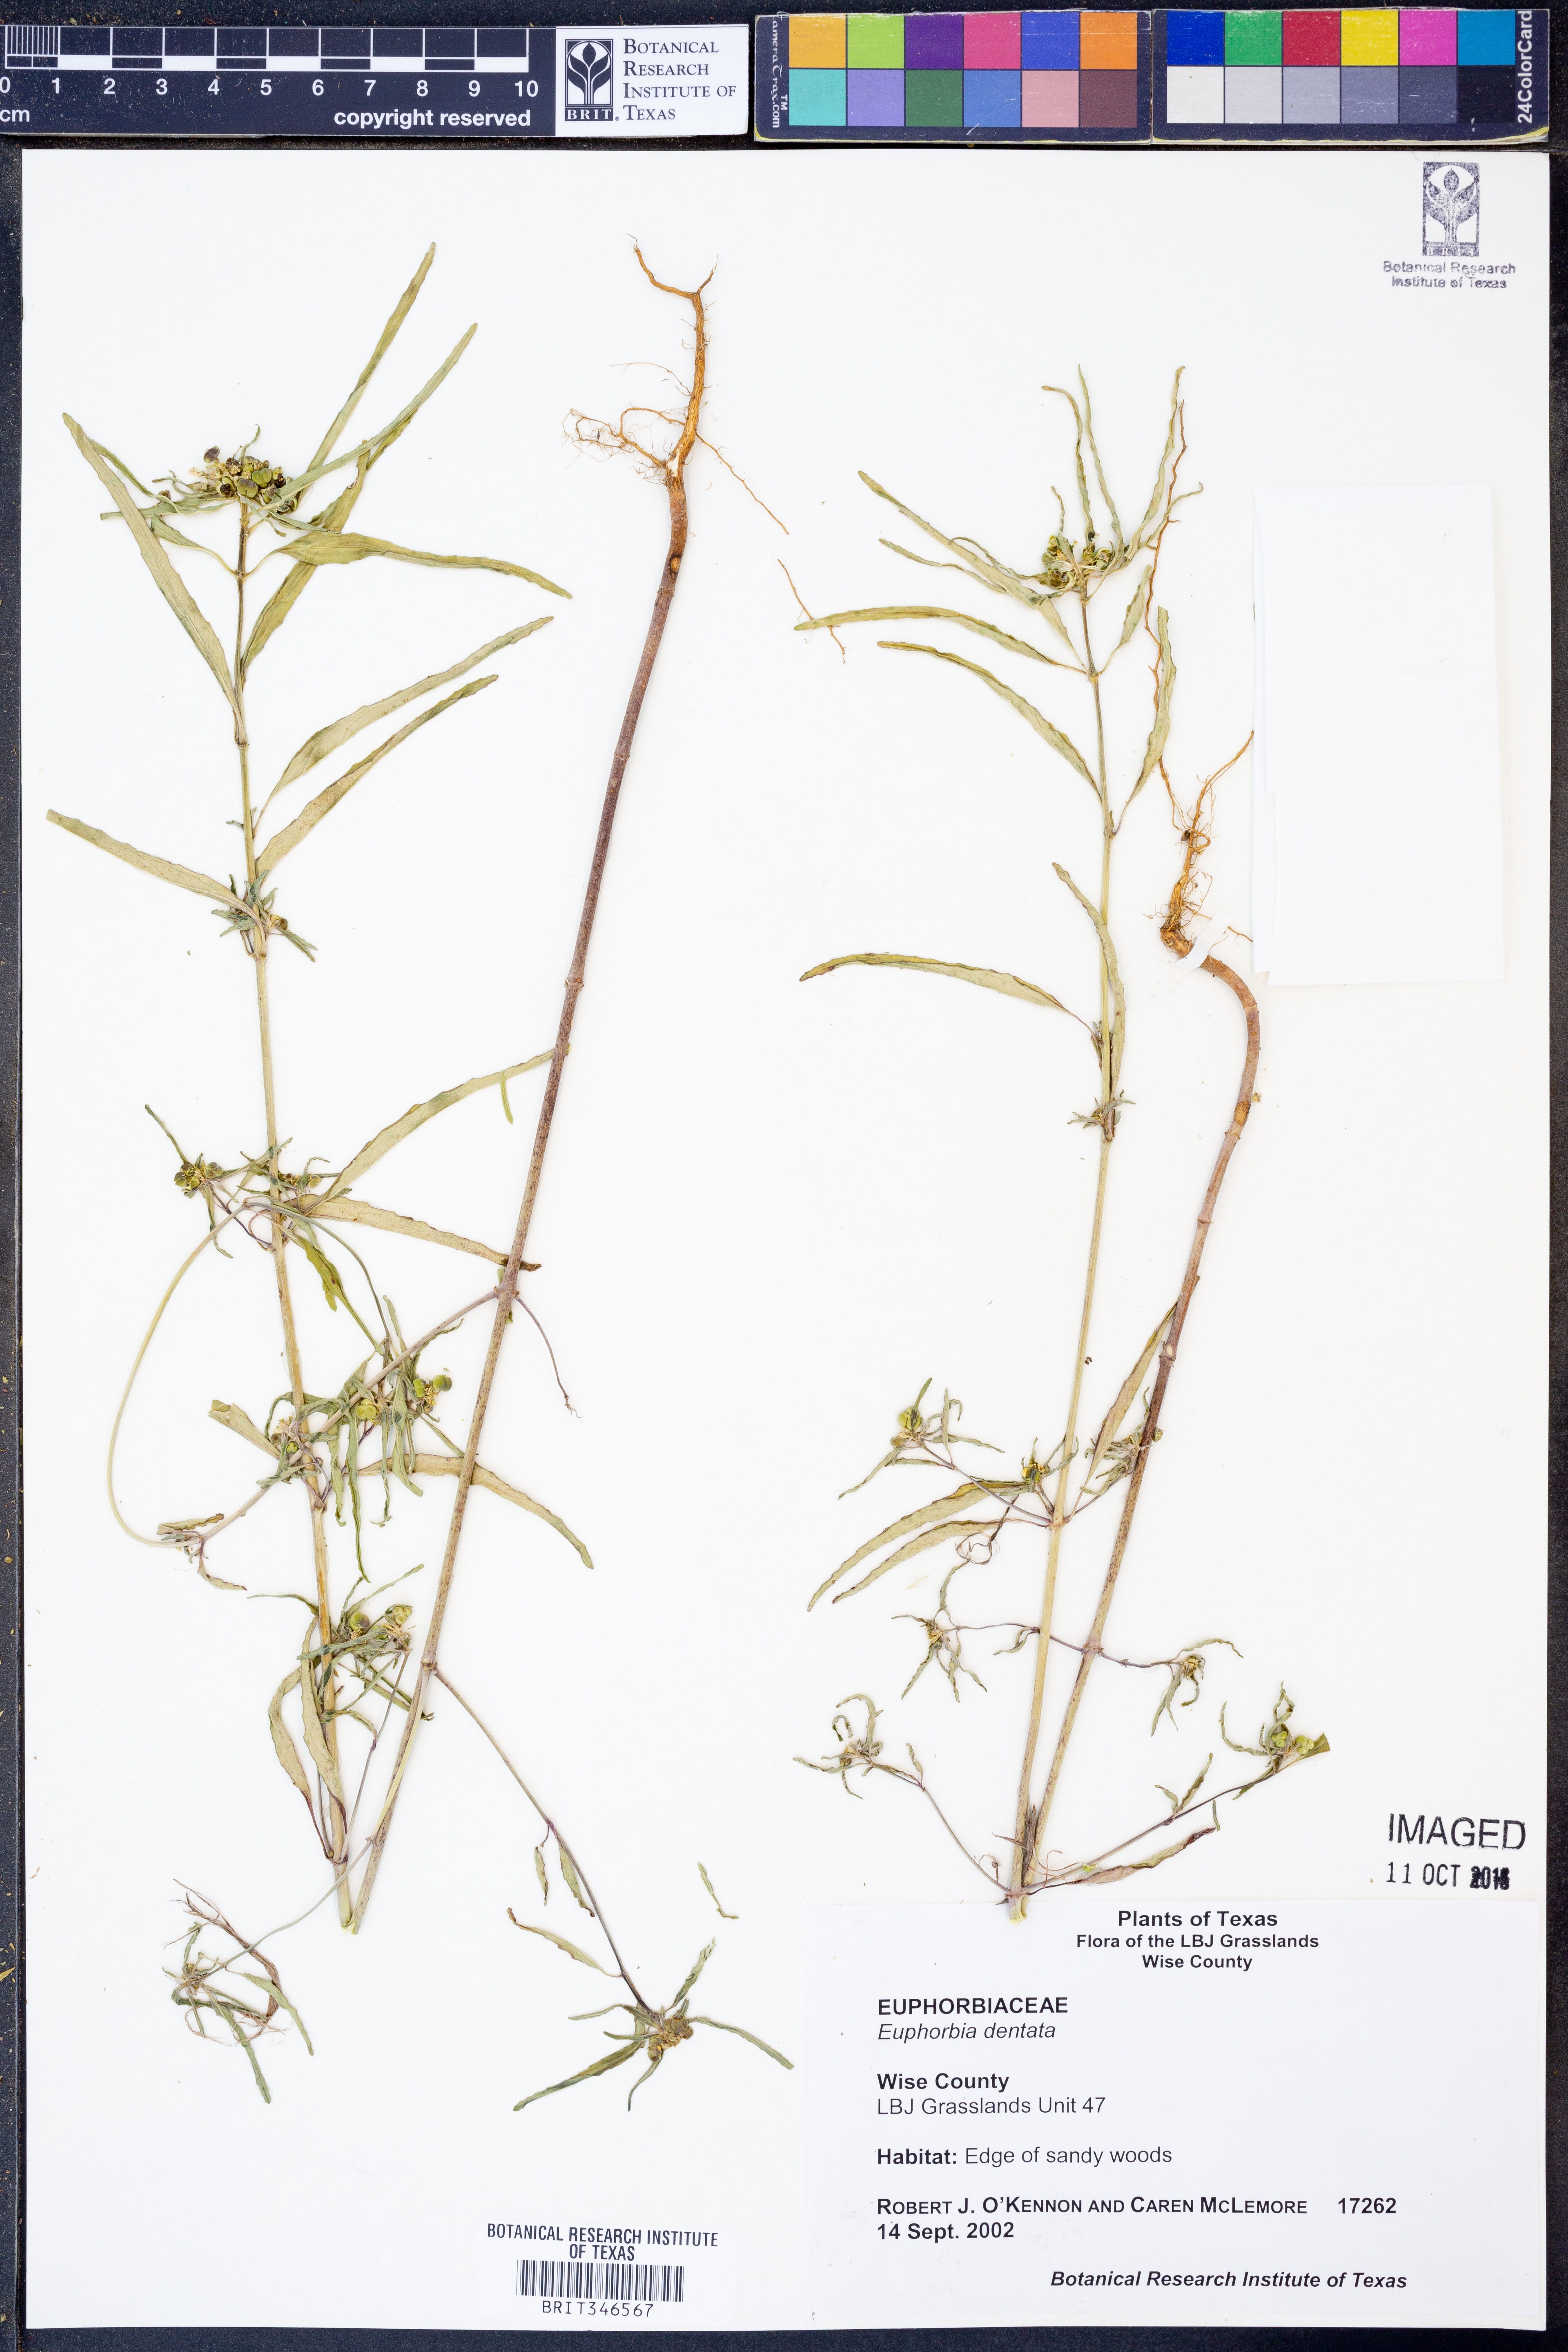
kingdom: Plantae
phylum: Tracheophyta
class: Magnoliopsida
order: Malpighiales
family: Euphorbiaceae
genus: Euphorbia
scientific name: Euphorbia dentata
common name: Dentate spurge
